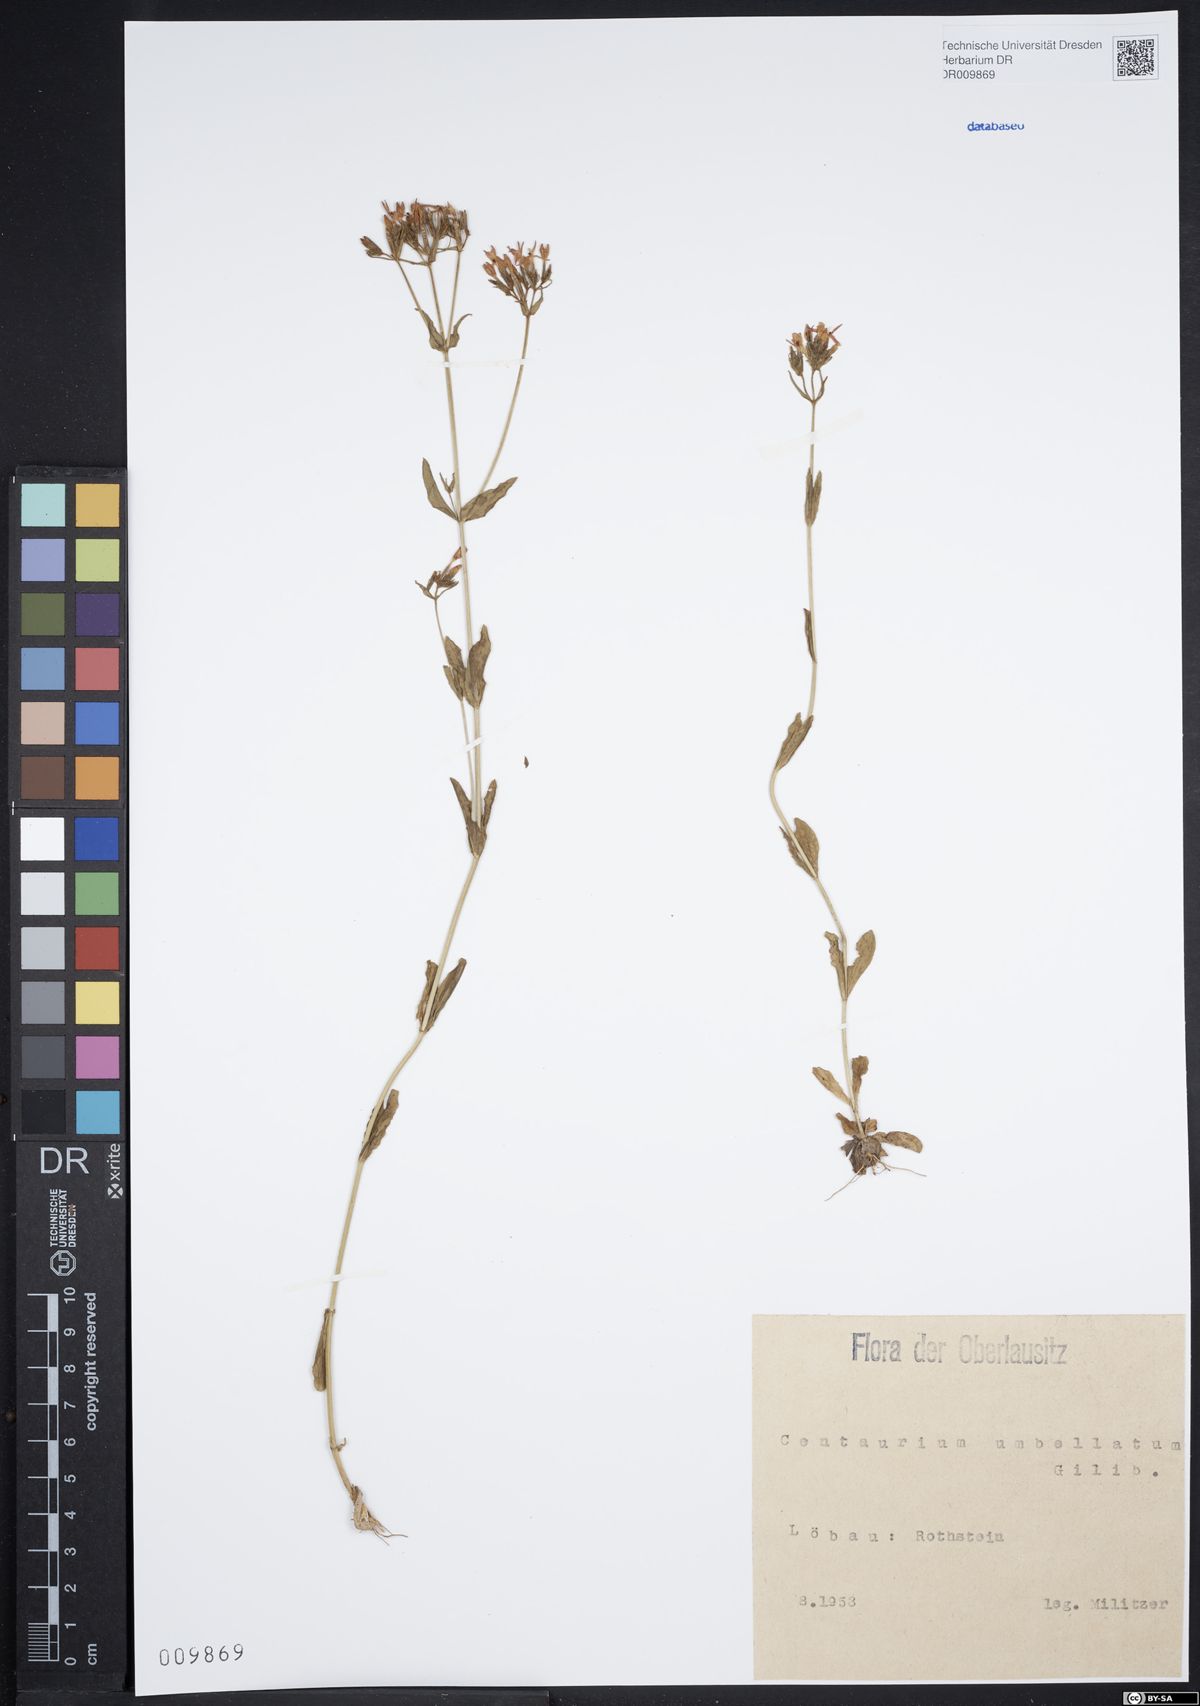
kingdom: Plantae
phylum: Tracheophyta
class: Magnoliopsida
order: Gentianales
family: Gentianaceae
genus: Centaurium
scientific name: Centaurium erythraea
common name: Common centaury
